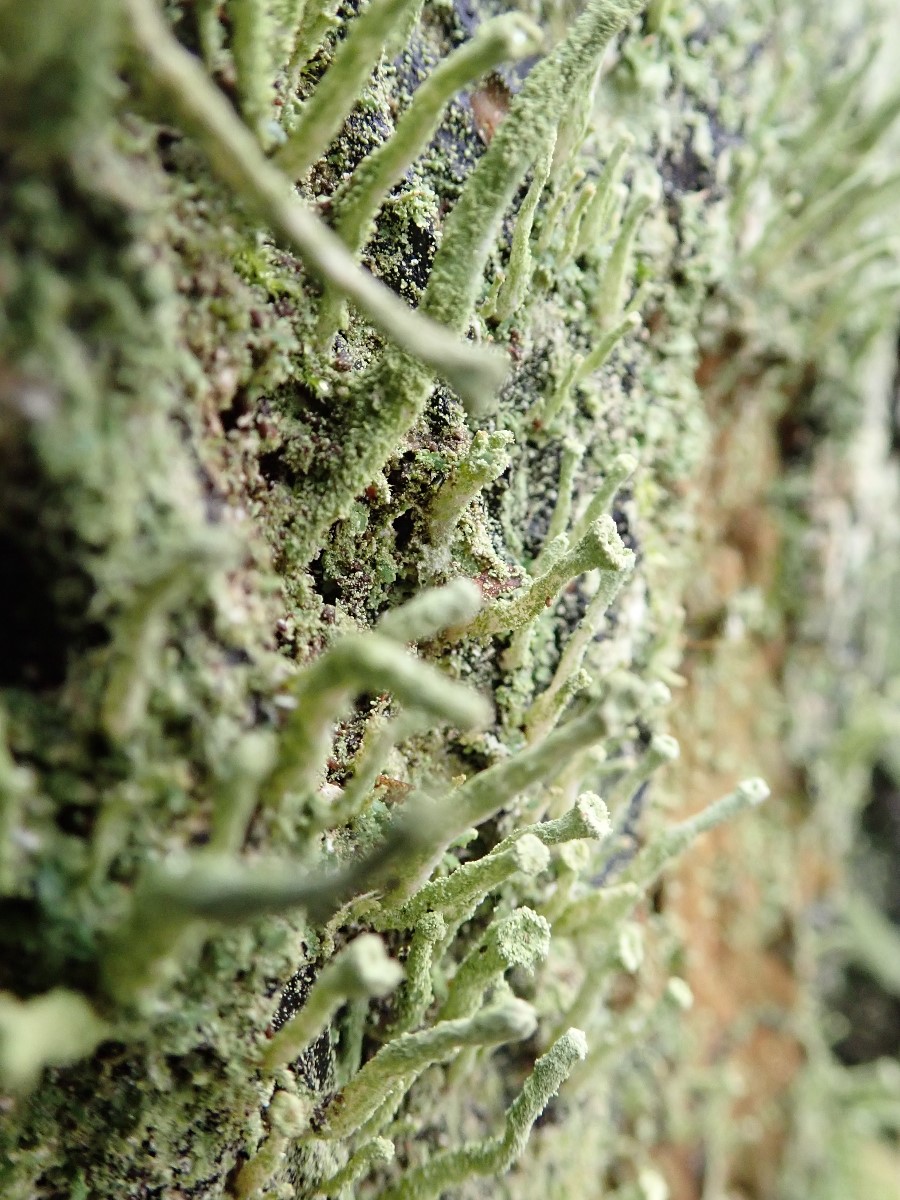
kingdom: Fungi
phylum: Ascomycota
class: Lecanoromycetes
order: Lecanorales
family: Cladoniaceae
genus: Cladonia
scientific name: Cladonia coniocraea
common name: træfods-bægerlav
